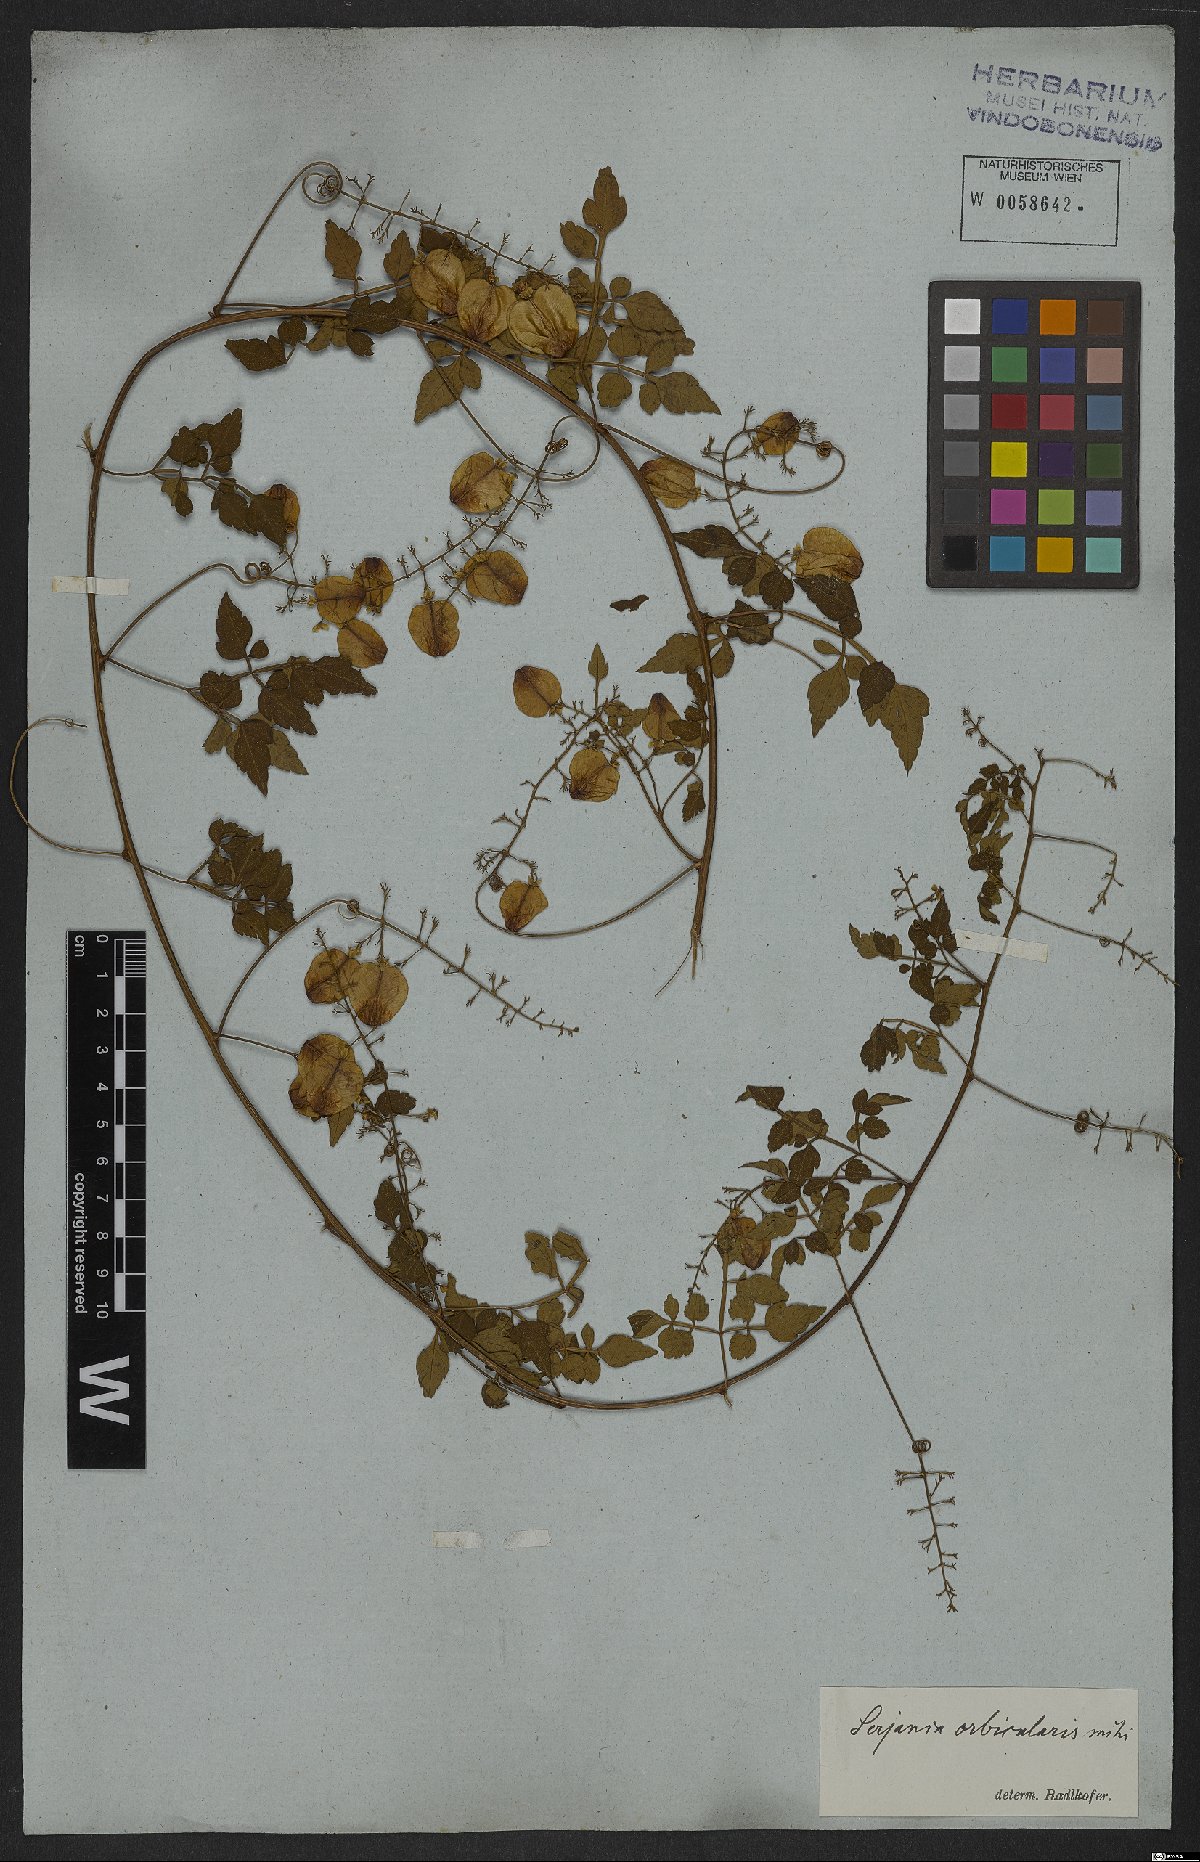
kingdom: Plantae
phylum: Tracheophyta
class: Magnoliopsida
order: Sapindales
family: Sapindaceae
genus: Serjania
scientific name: Serjania orbicularis
